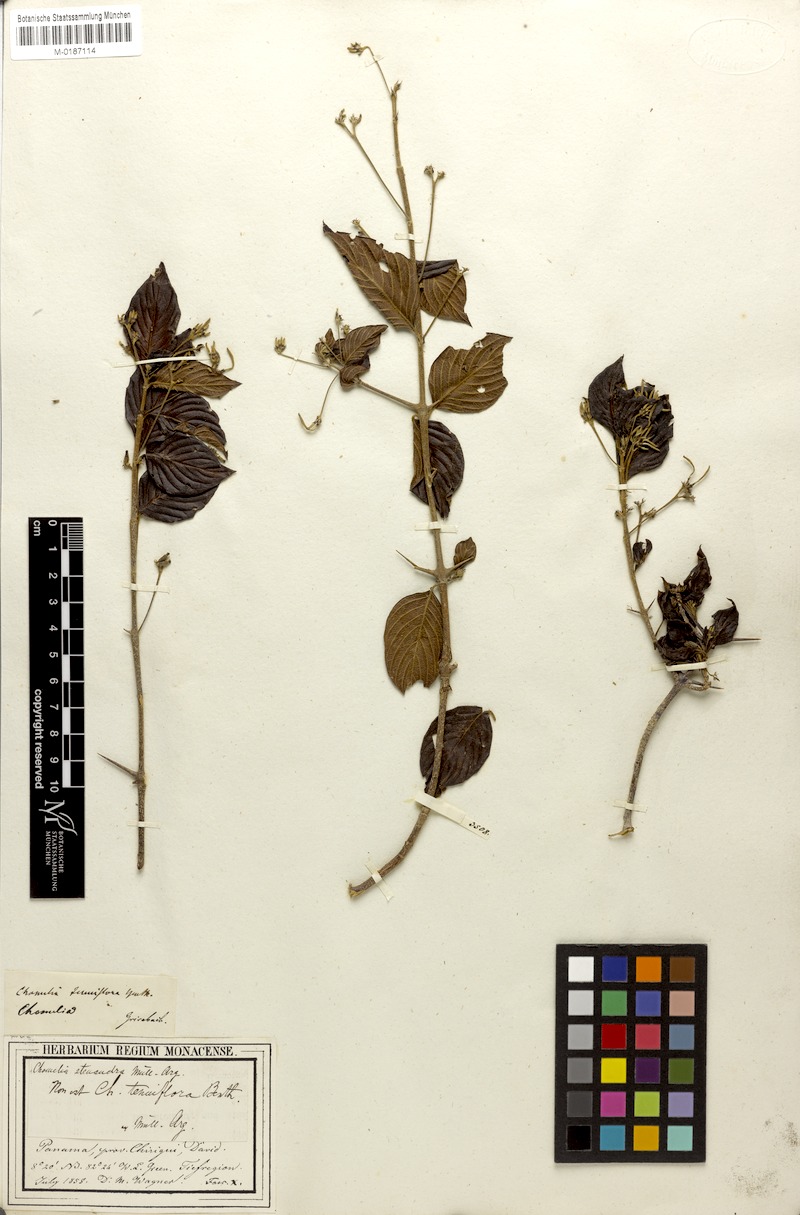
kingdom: Plantae
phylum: Tracheophyta
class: Magnoliopsida
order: Gentianales
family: Rubiaceae
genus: Chomelia
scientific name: Chomelia
